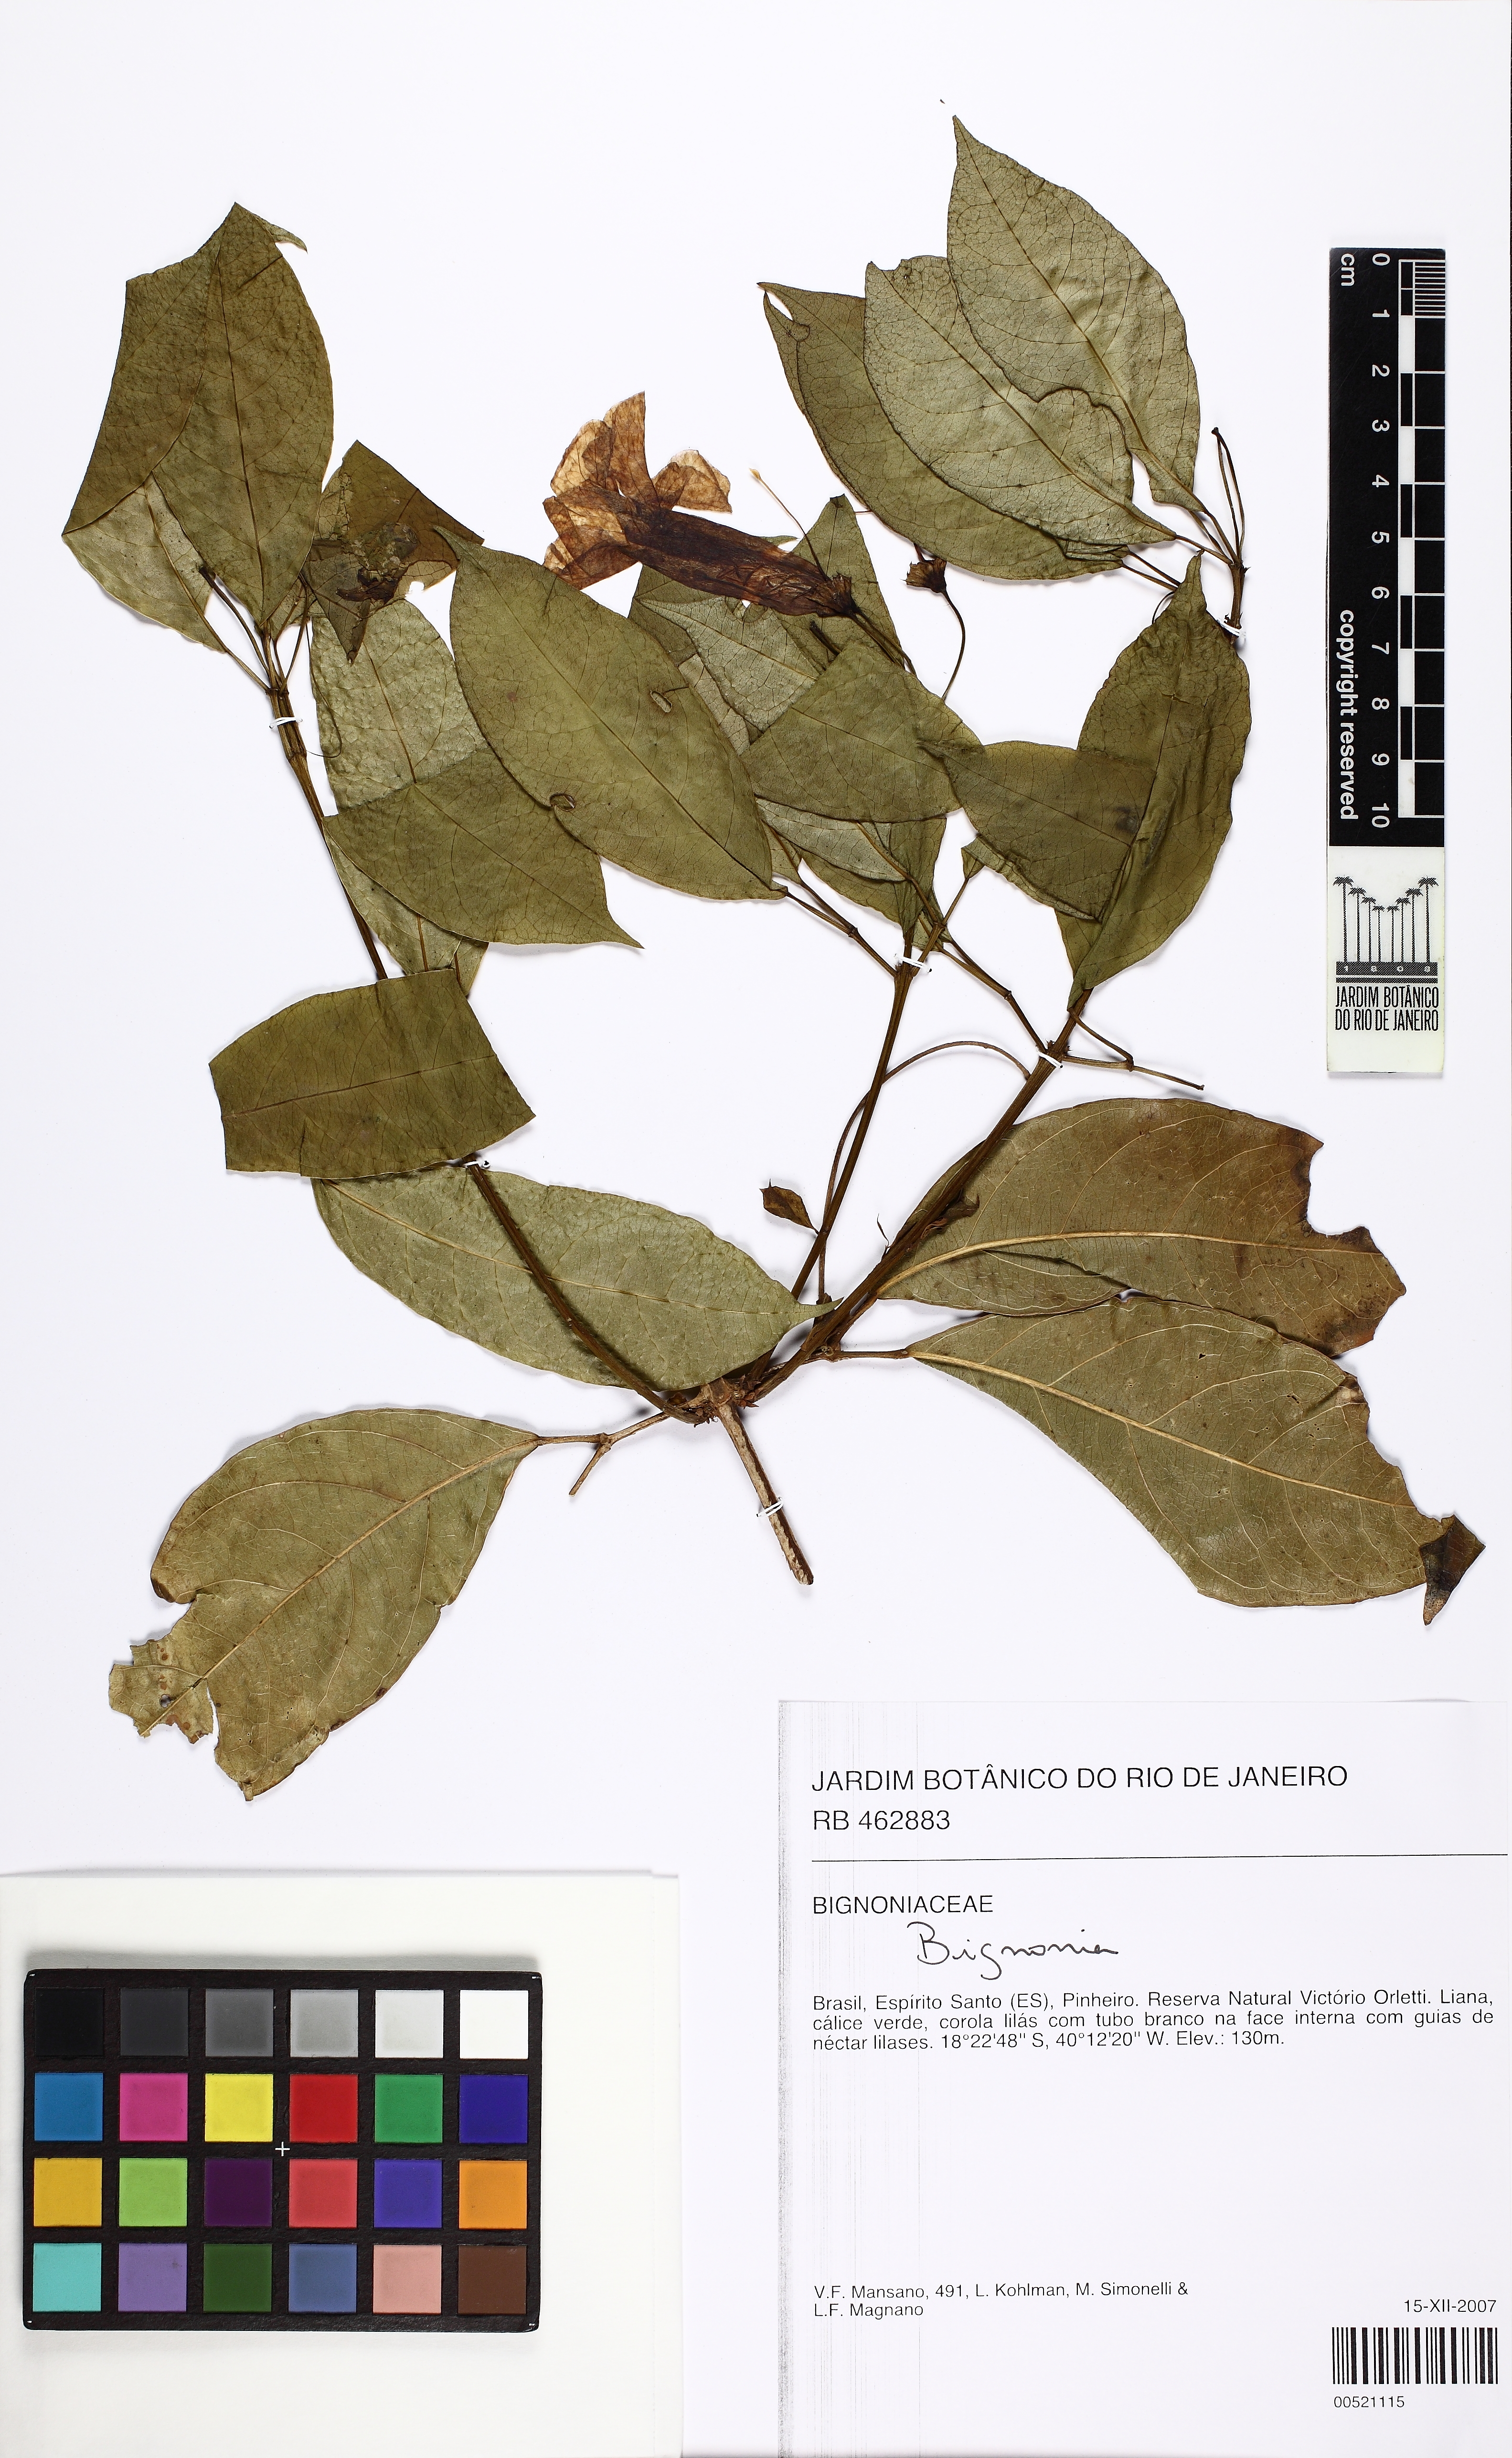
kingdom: Plantae
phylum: Tracheophyta
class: Magnoliopsida
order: Lamiales
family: Bignoniaceae
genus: Bignonia
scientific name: Bignonia
